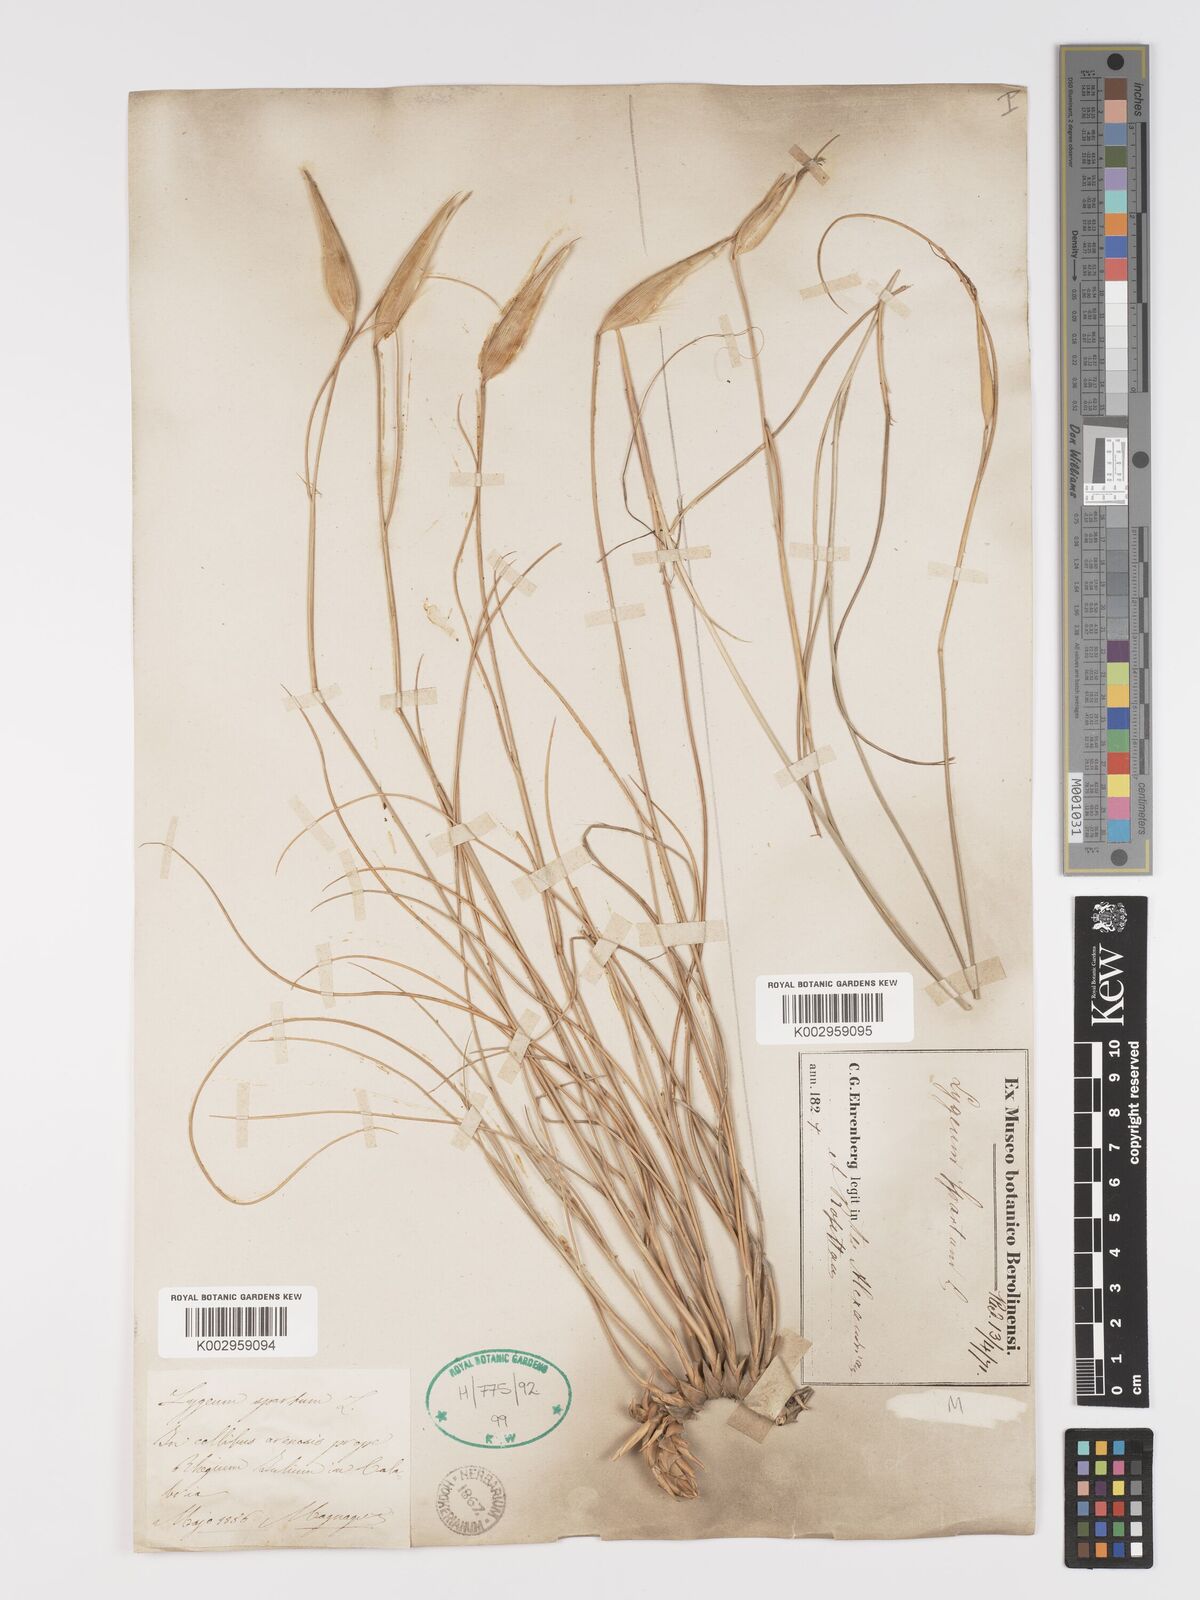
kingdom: Plantae
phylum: Tracheophyta
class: Liliopsida
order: Poales
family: Poaceae
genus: Lygeum
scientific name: Lygeum spartum
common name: Albardine
